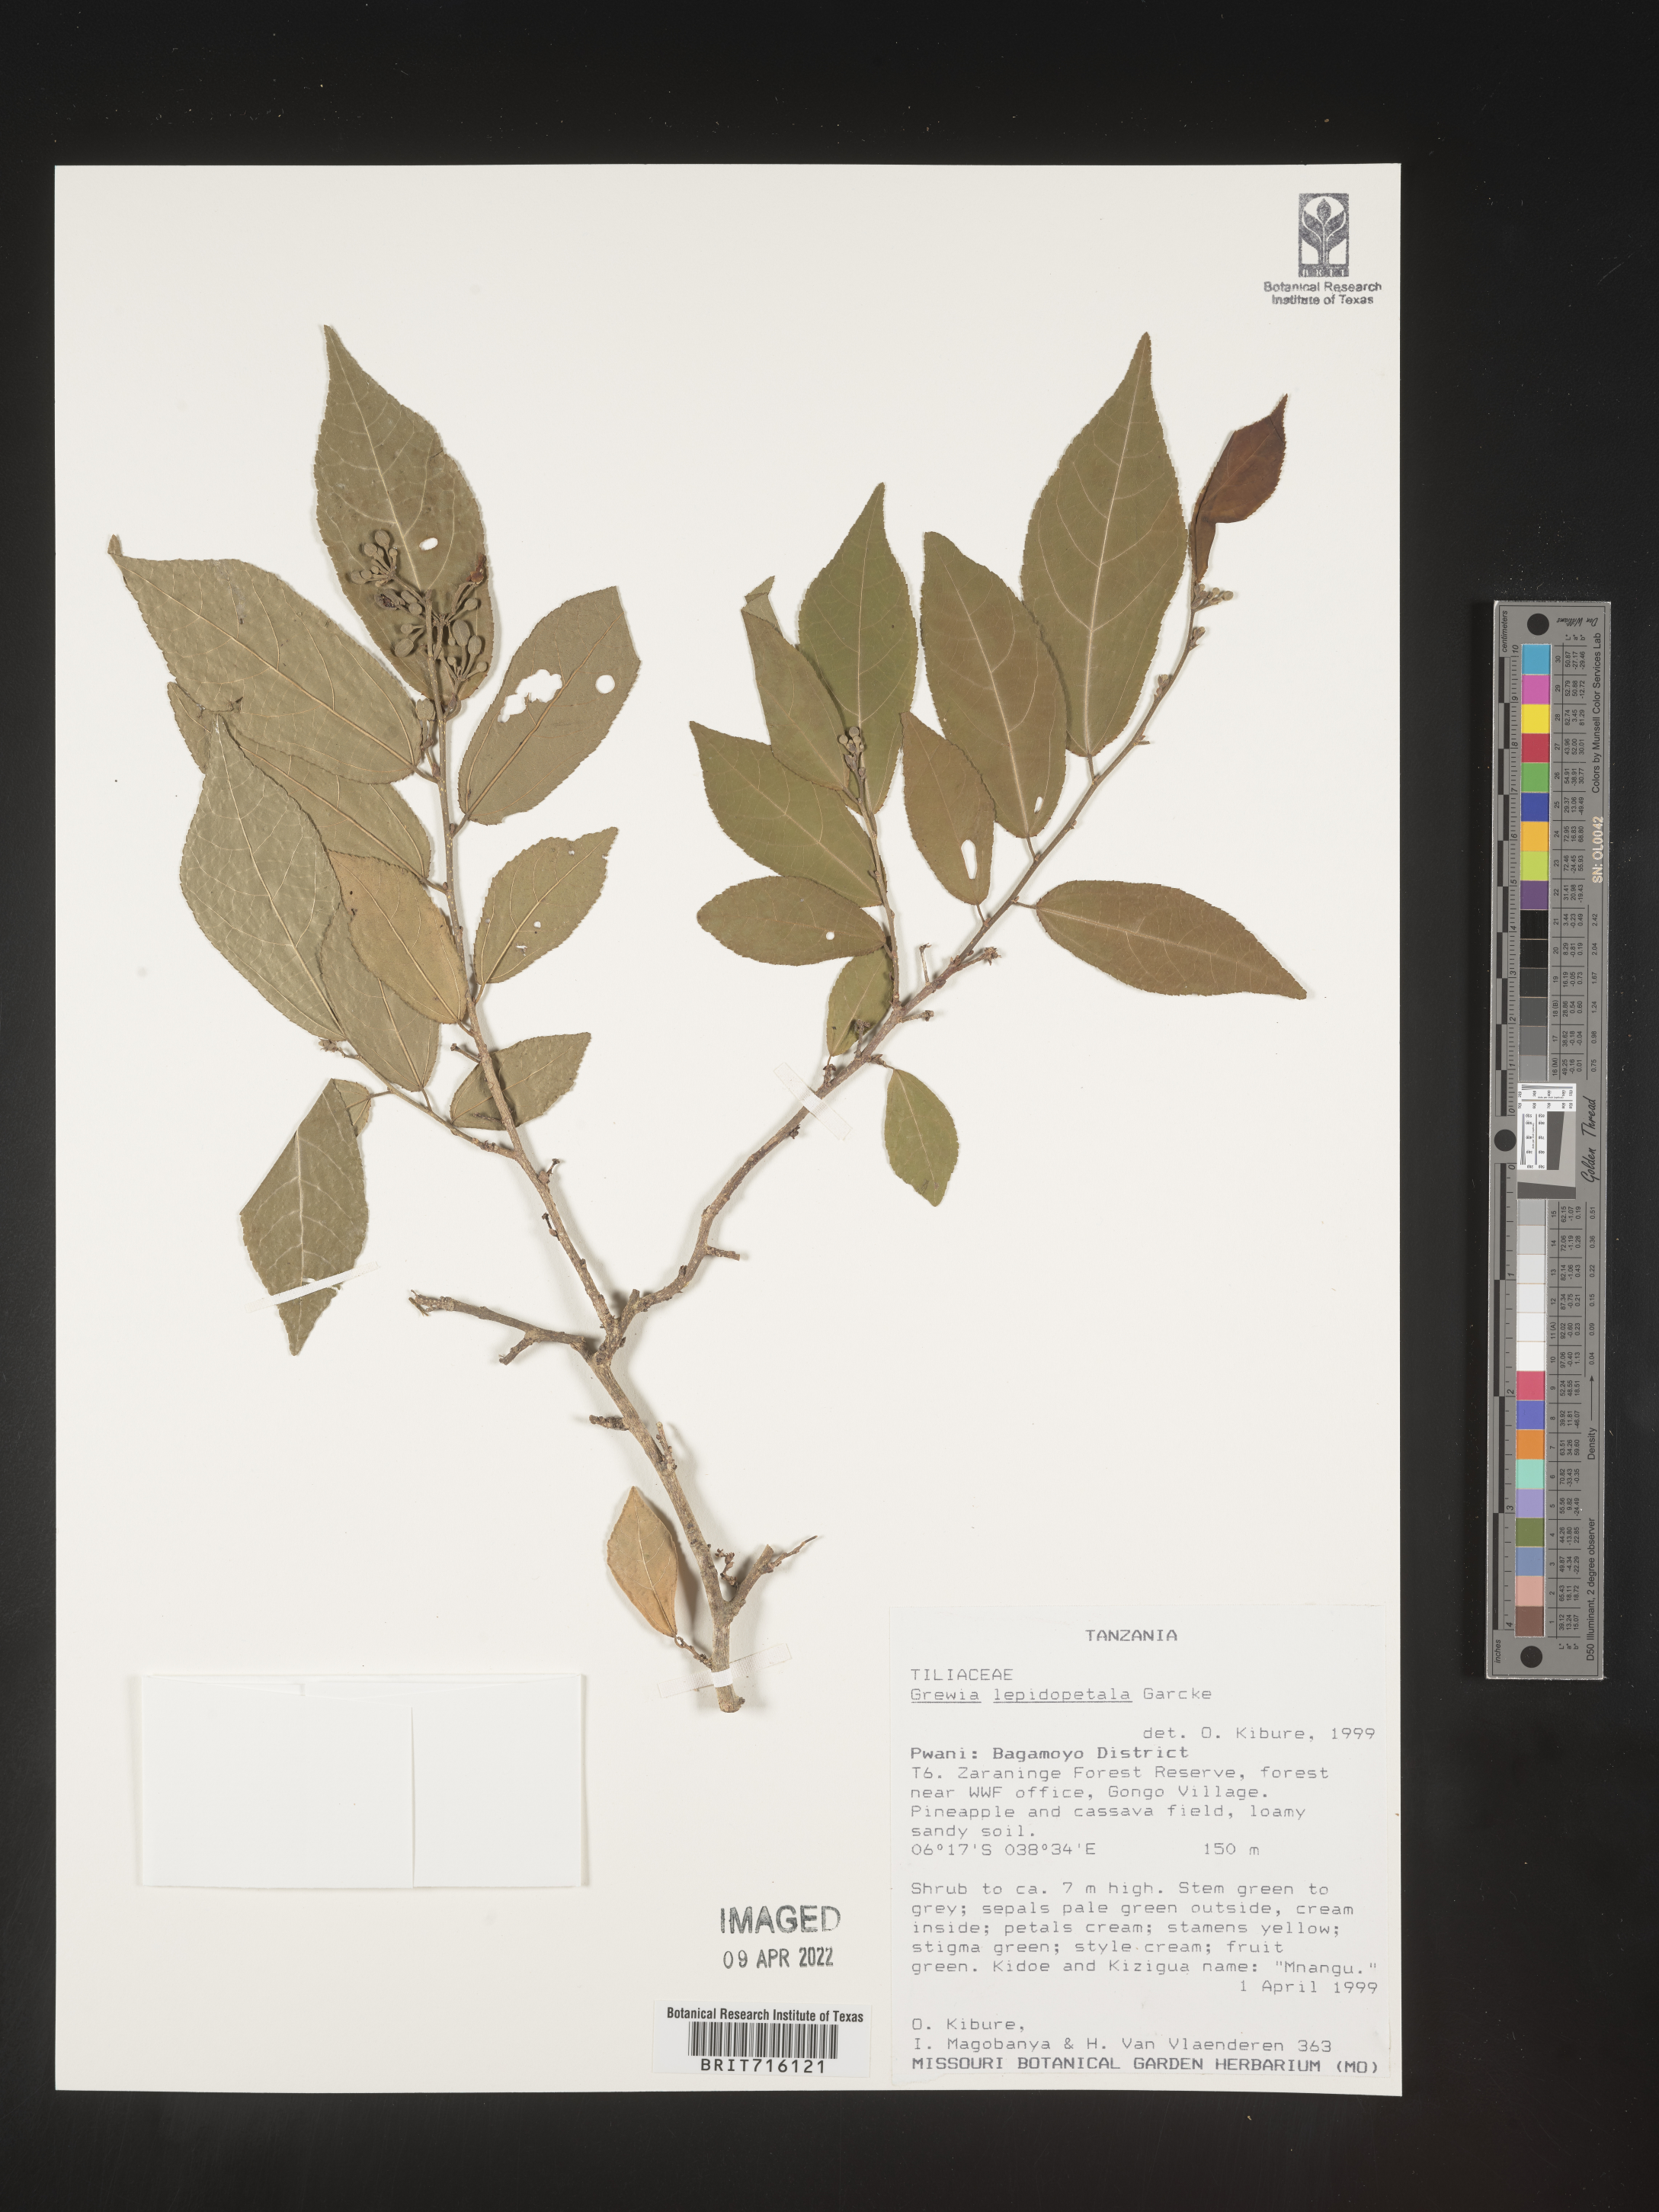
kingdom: Plantae
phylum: Tracheophyta
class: Magnoliopsida
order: Malvales
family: Malvaceae
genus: Grewia
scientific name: Grewia
